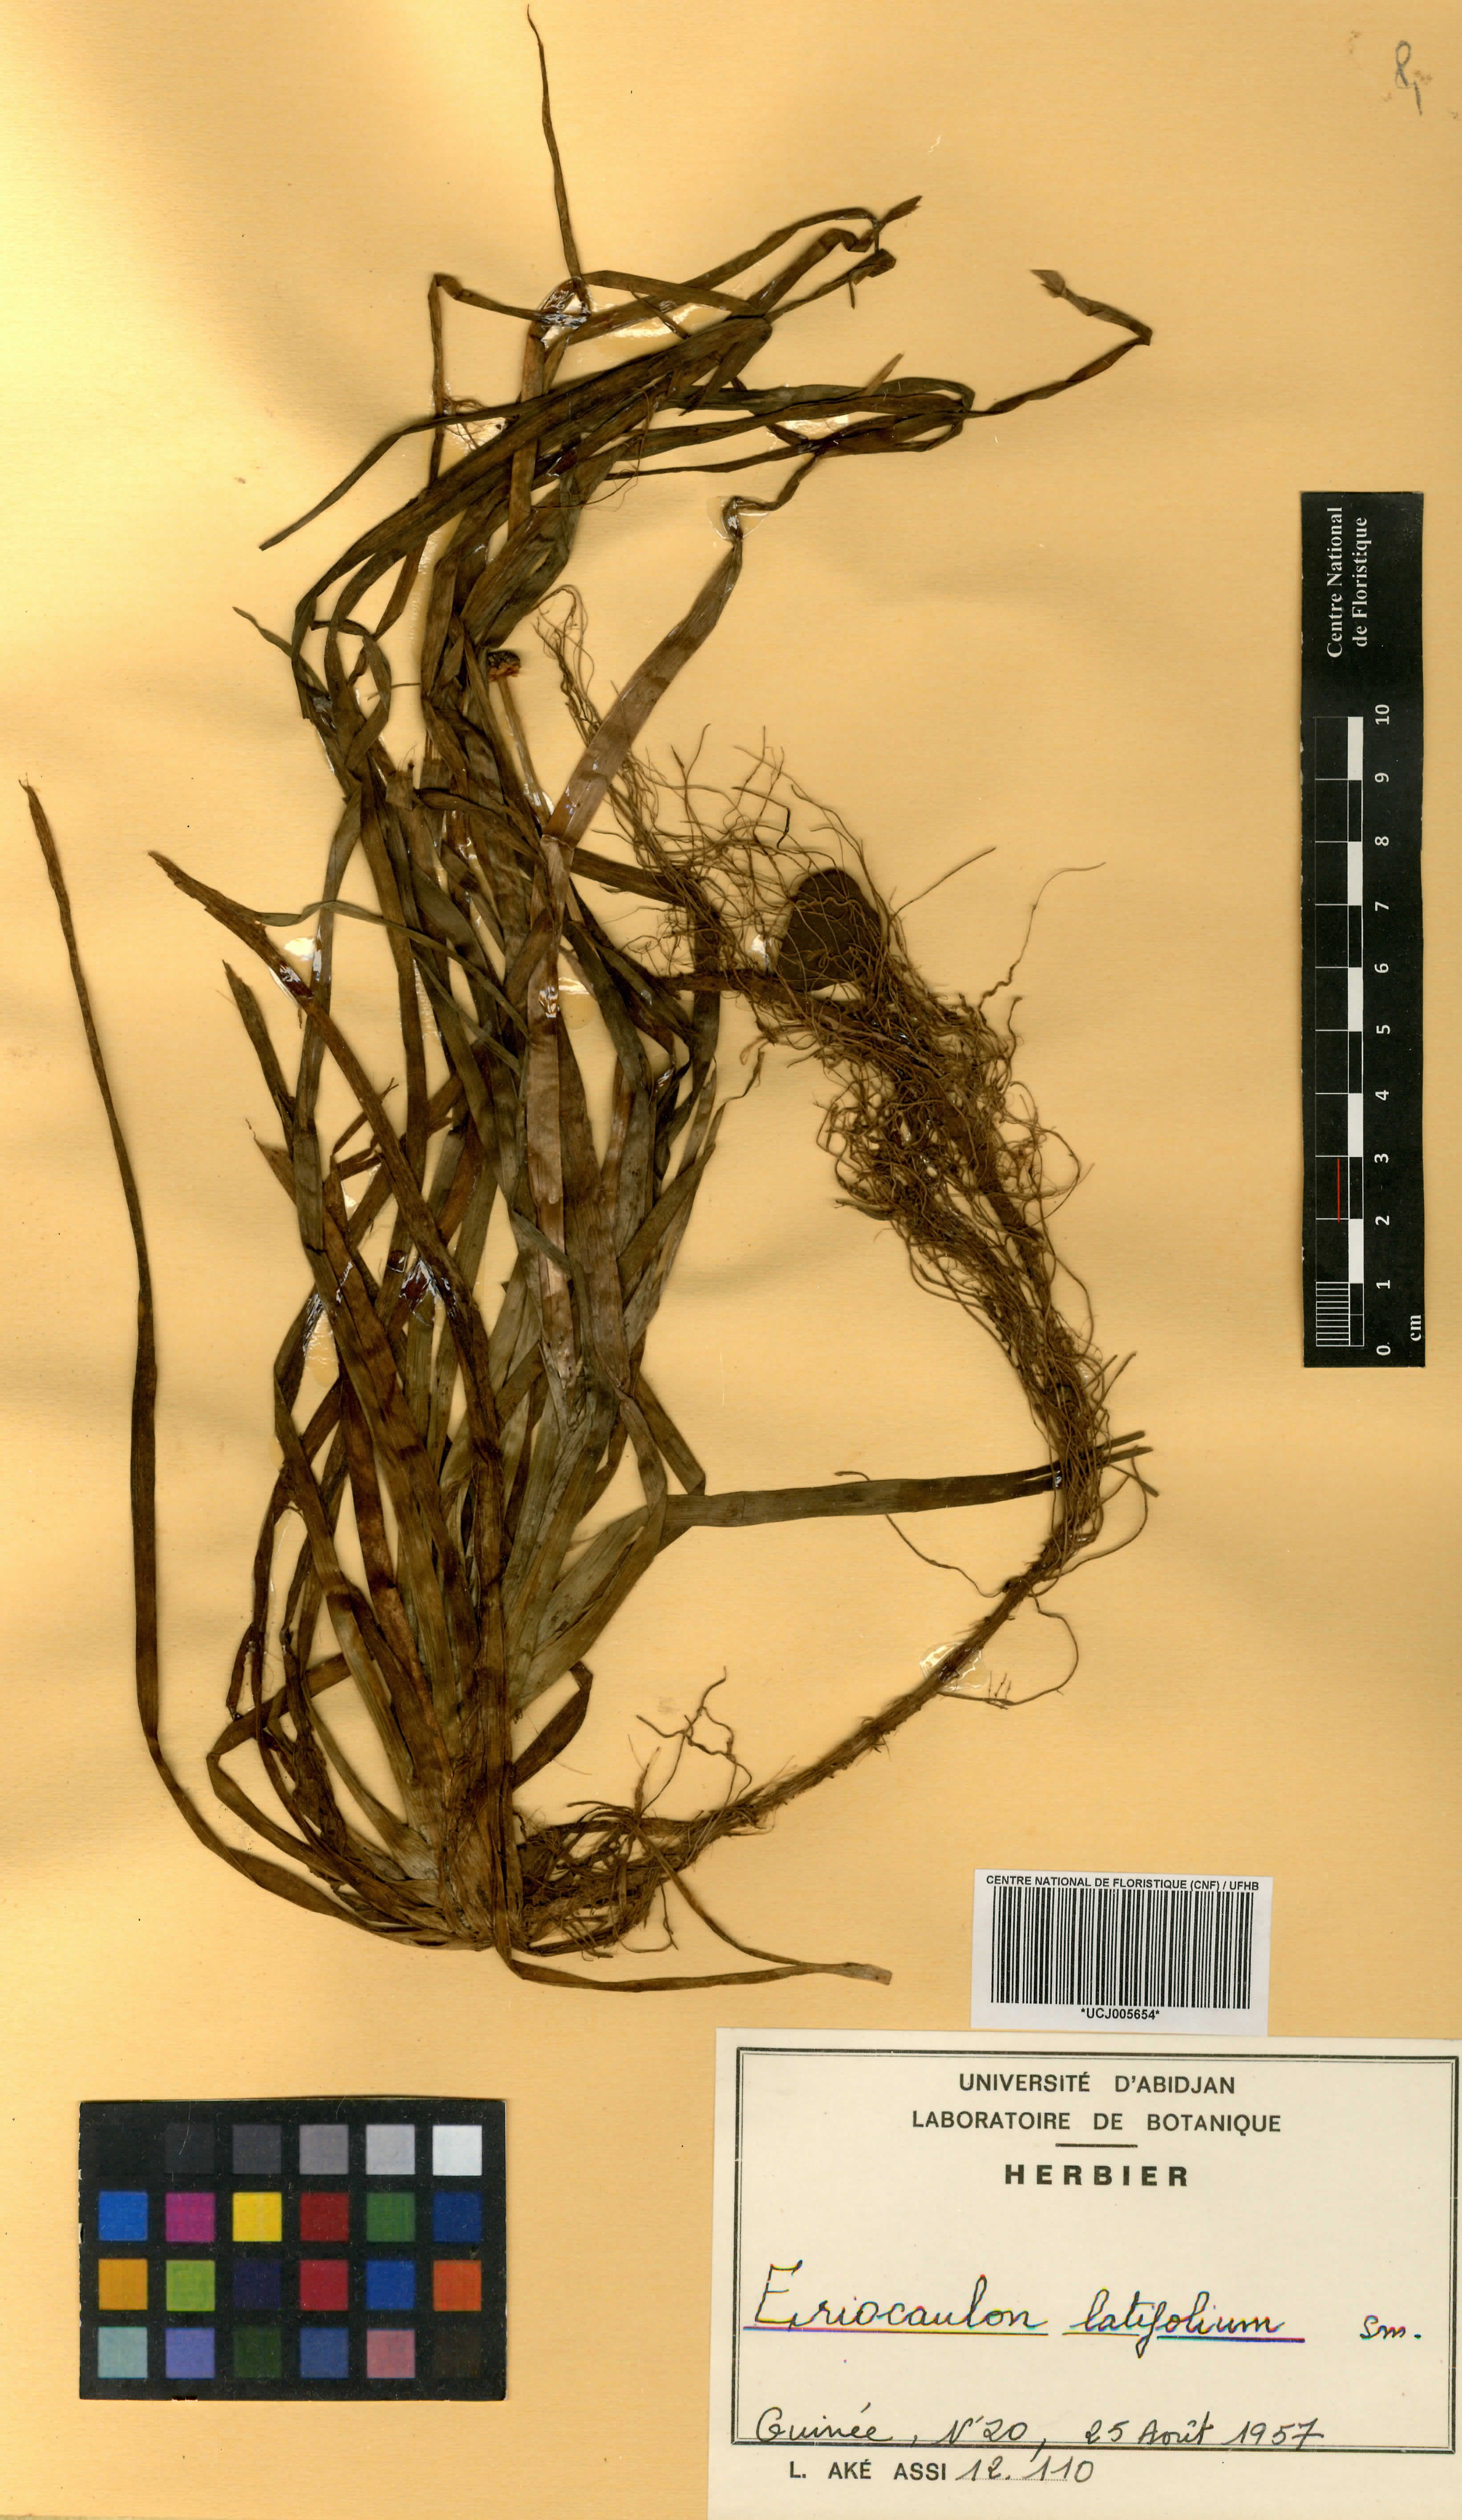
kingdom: Plantae
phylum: Tracheophyta
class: Liliopsida
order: Poales
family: Eriocaulaceae
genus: Eriocaulon
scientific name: Eriocaulon latifolium
